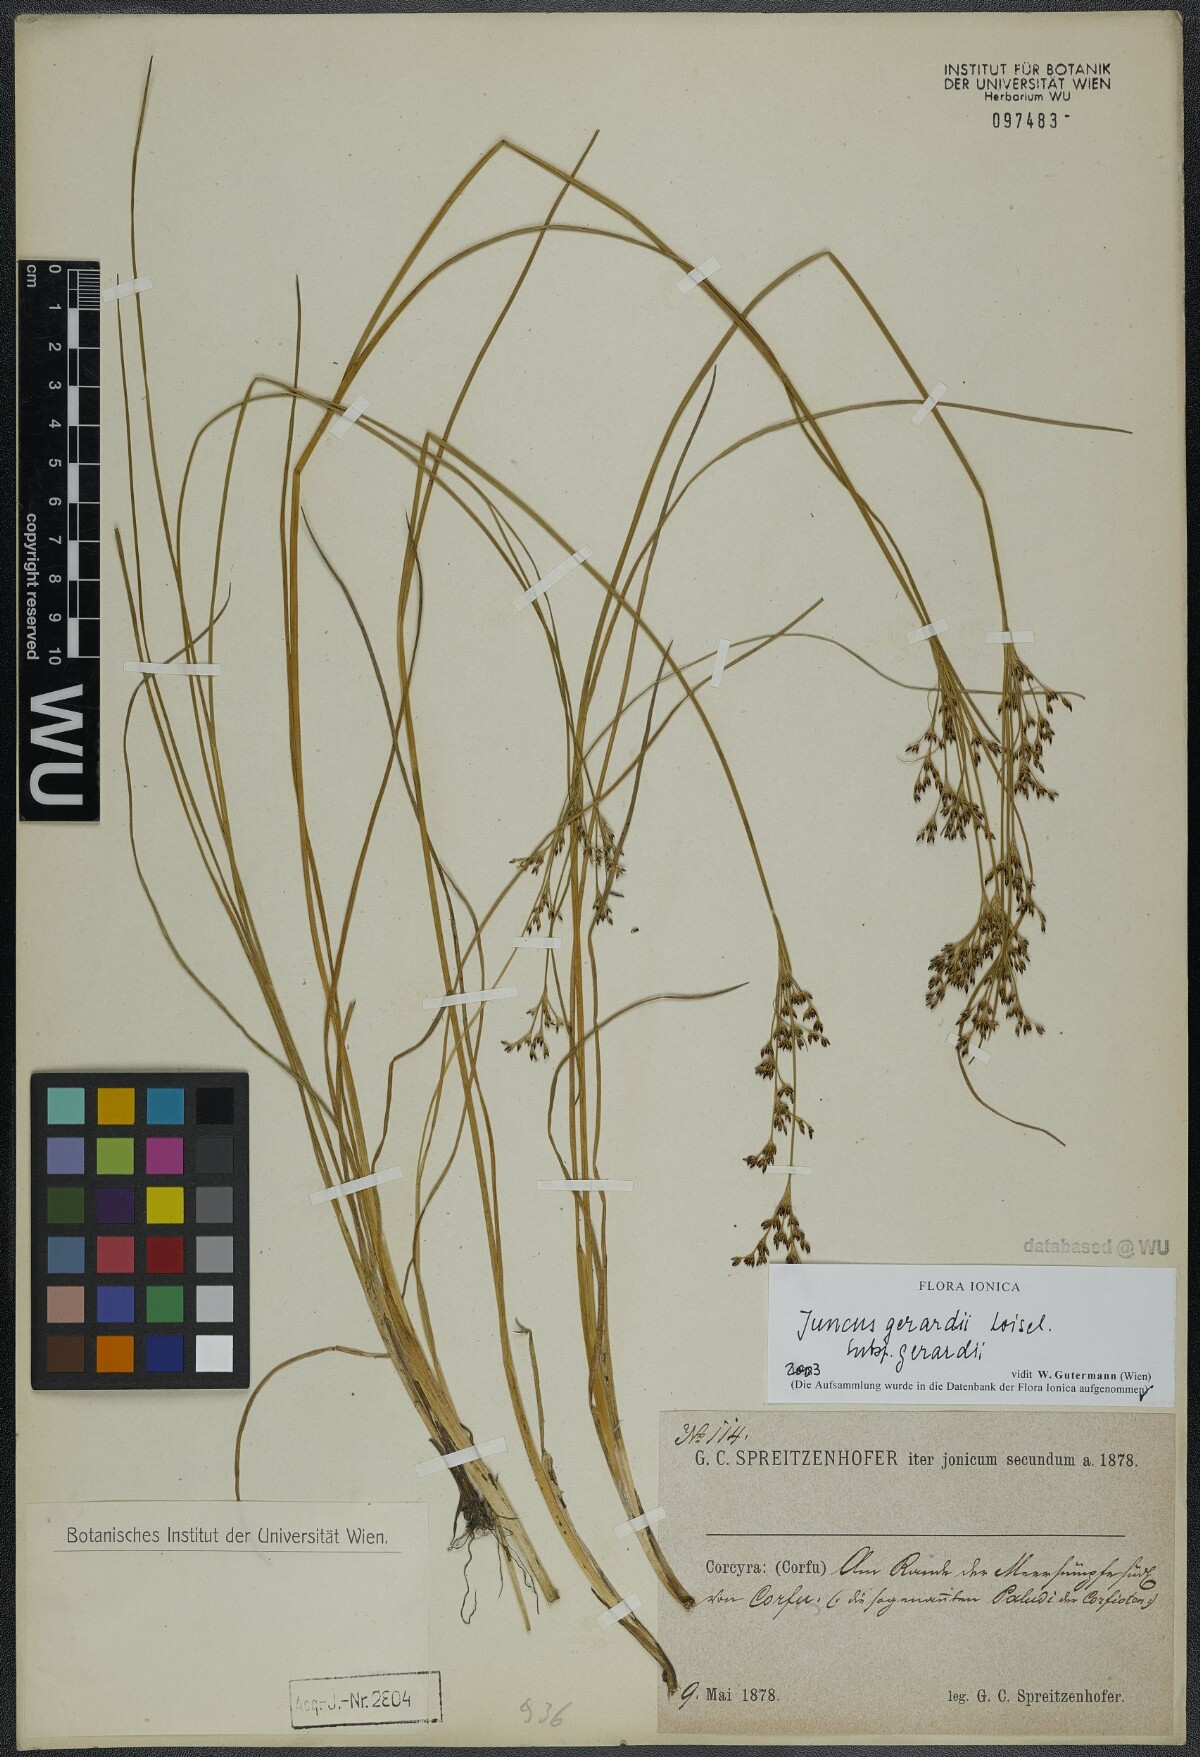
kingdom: Plantae
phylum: Tracheophyta
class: Liliopsida
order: Poales
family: Juncaceae
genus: Juncus
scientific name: Juncus gerardi
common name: Saltmarsh rush
